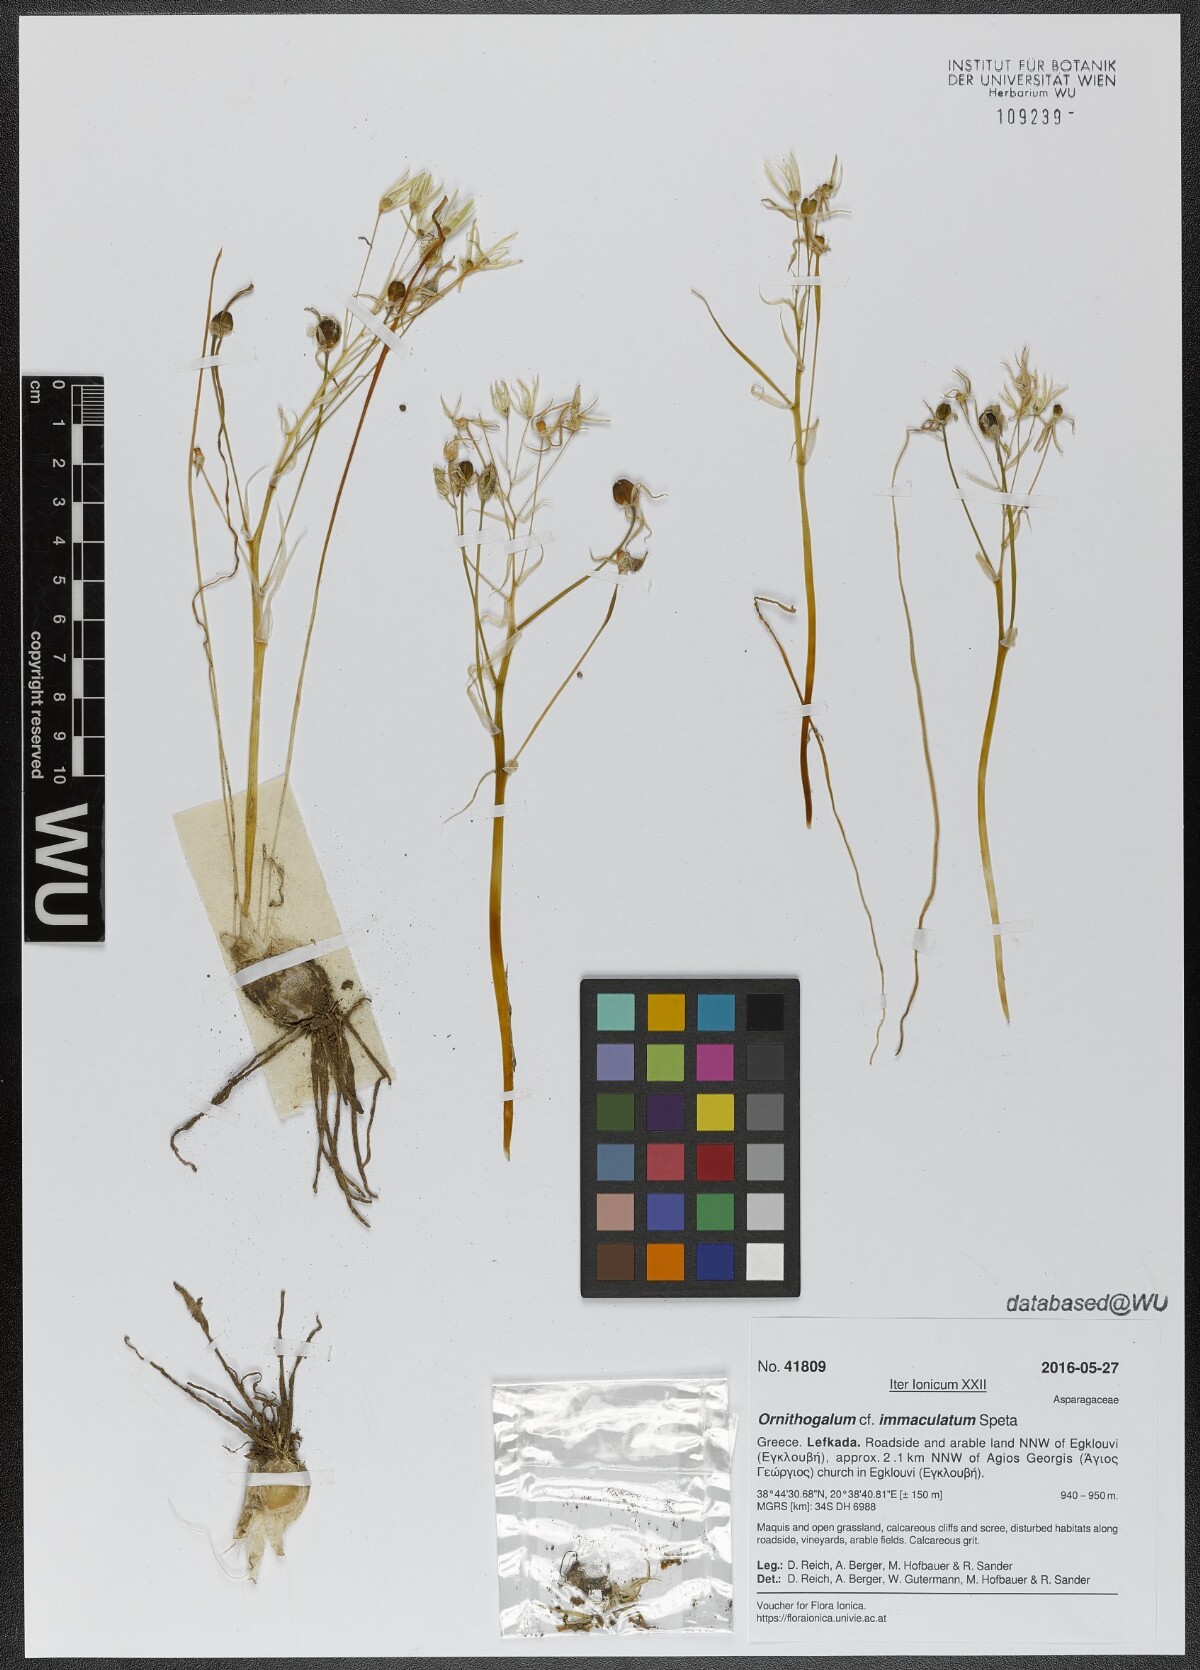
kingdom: Plantae
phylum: Tracheophyta
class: Liliopsida
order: Asparagales
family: Asparagaceae
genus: Ornithogalum
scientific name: Ornithogalum immaculatum
